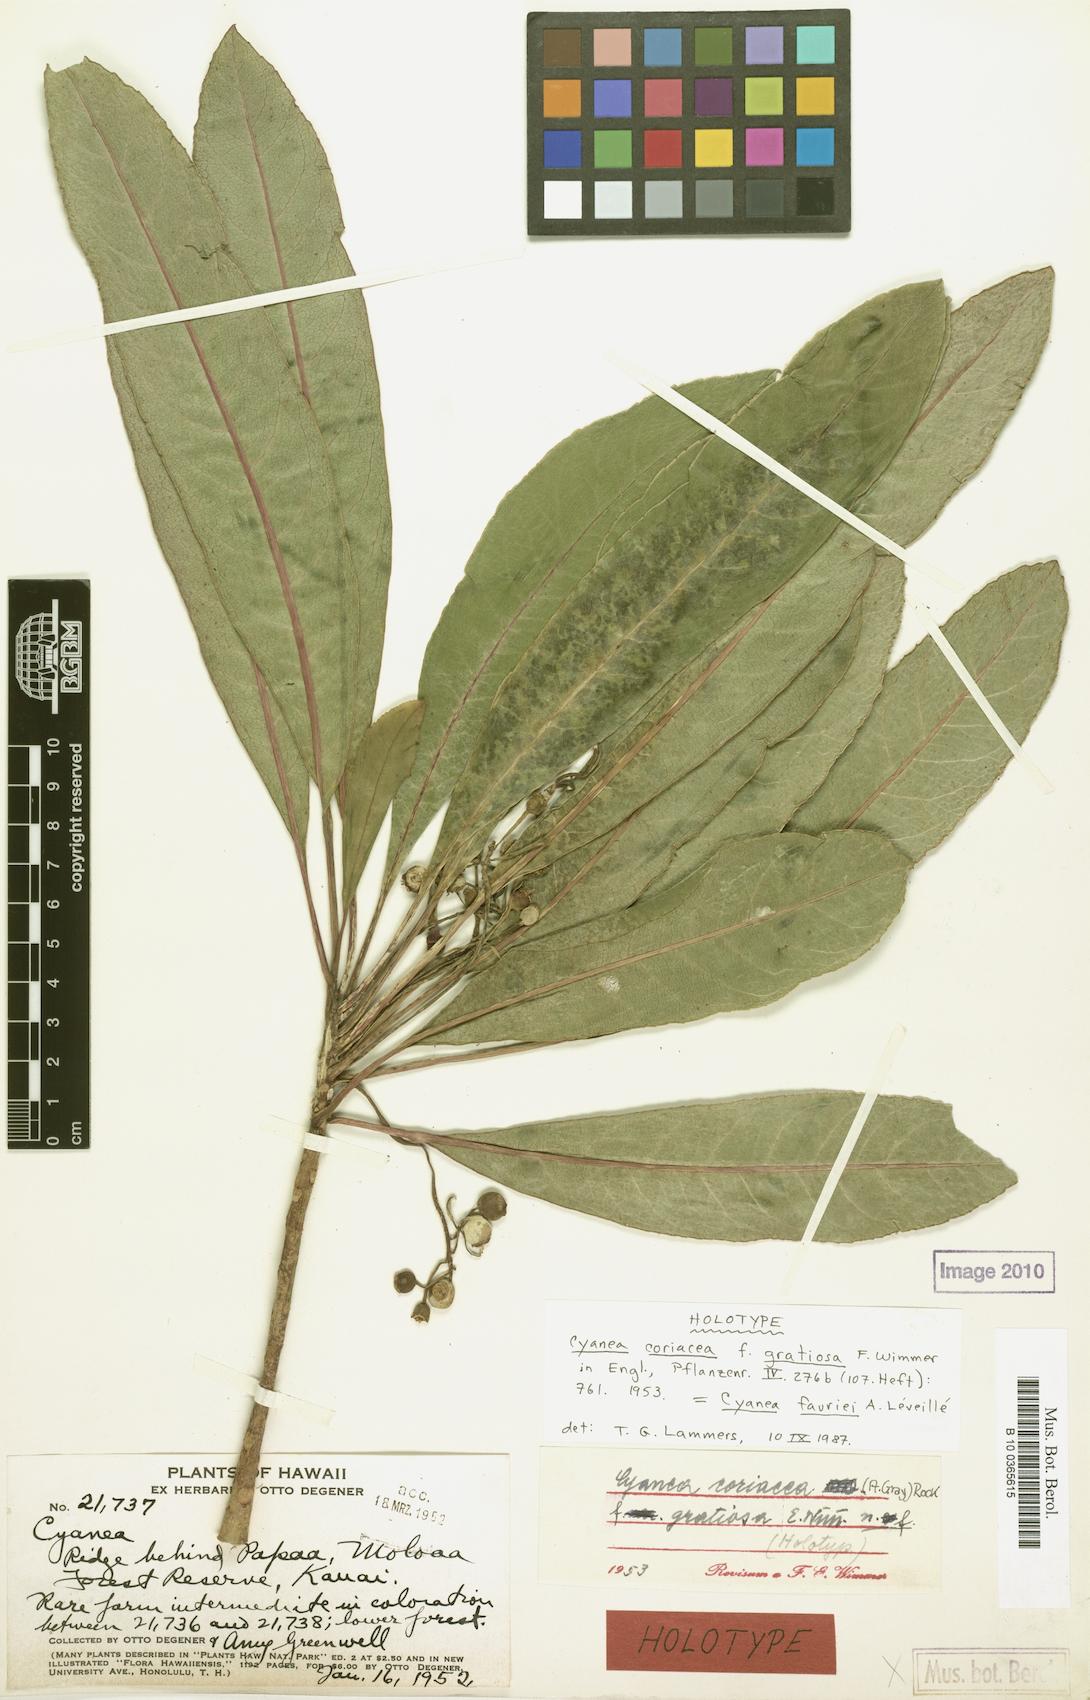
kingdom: Plantae
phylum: Tracheophyta
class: Magnoliopsida
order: Asterales
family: Campanulaceae
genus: Cyanea
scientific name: Cyanea coriacea
